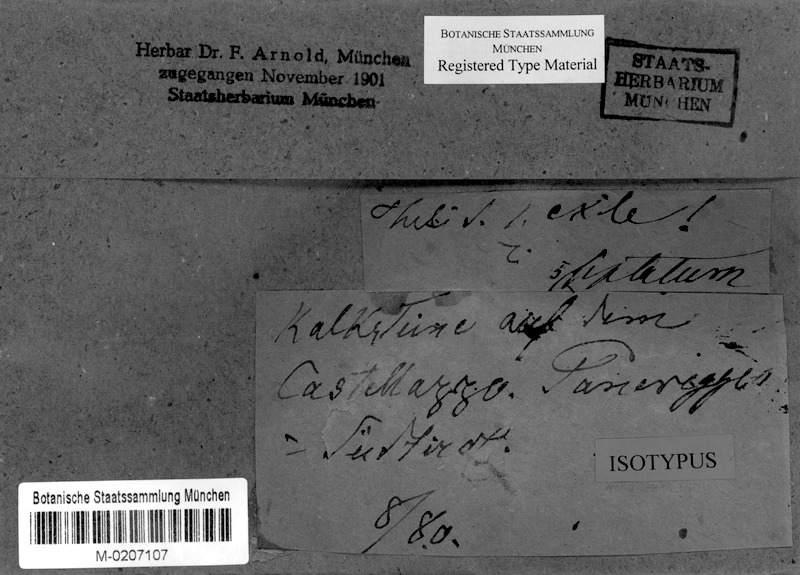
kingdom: Fungi
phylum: Ascomycota
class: Eurotiomycetes
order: Verrucariales
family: Verrucariaceae
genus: Thelidium
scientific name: Thelidium minutulum
